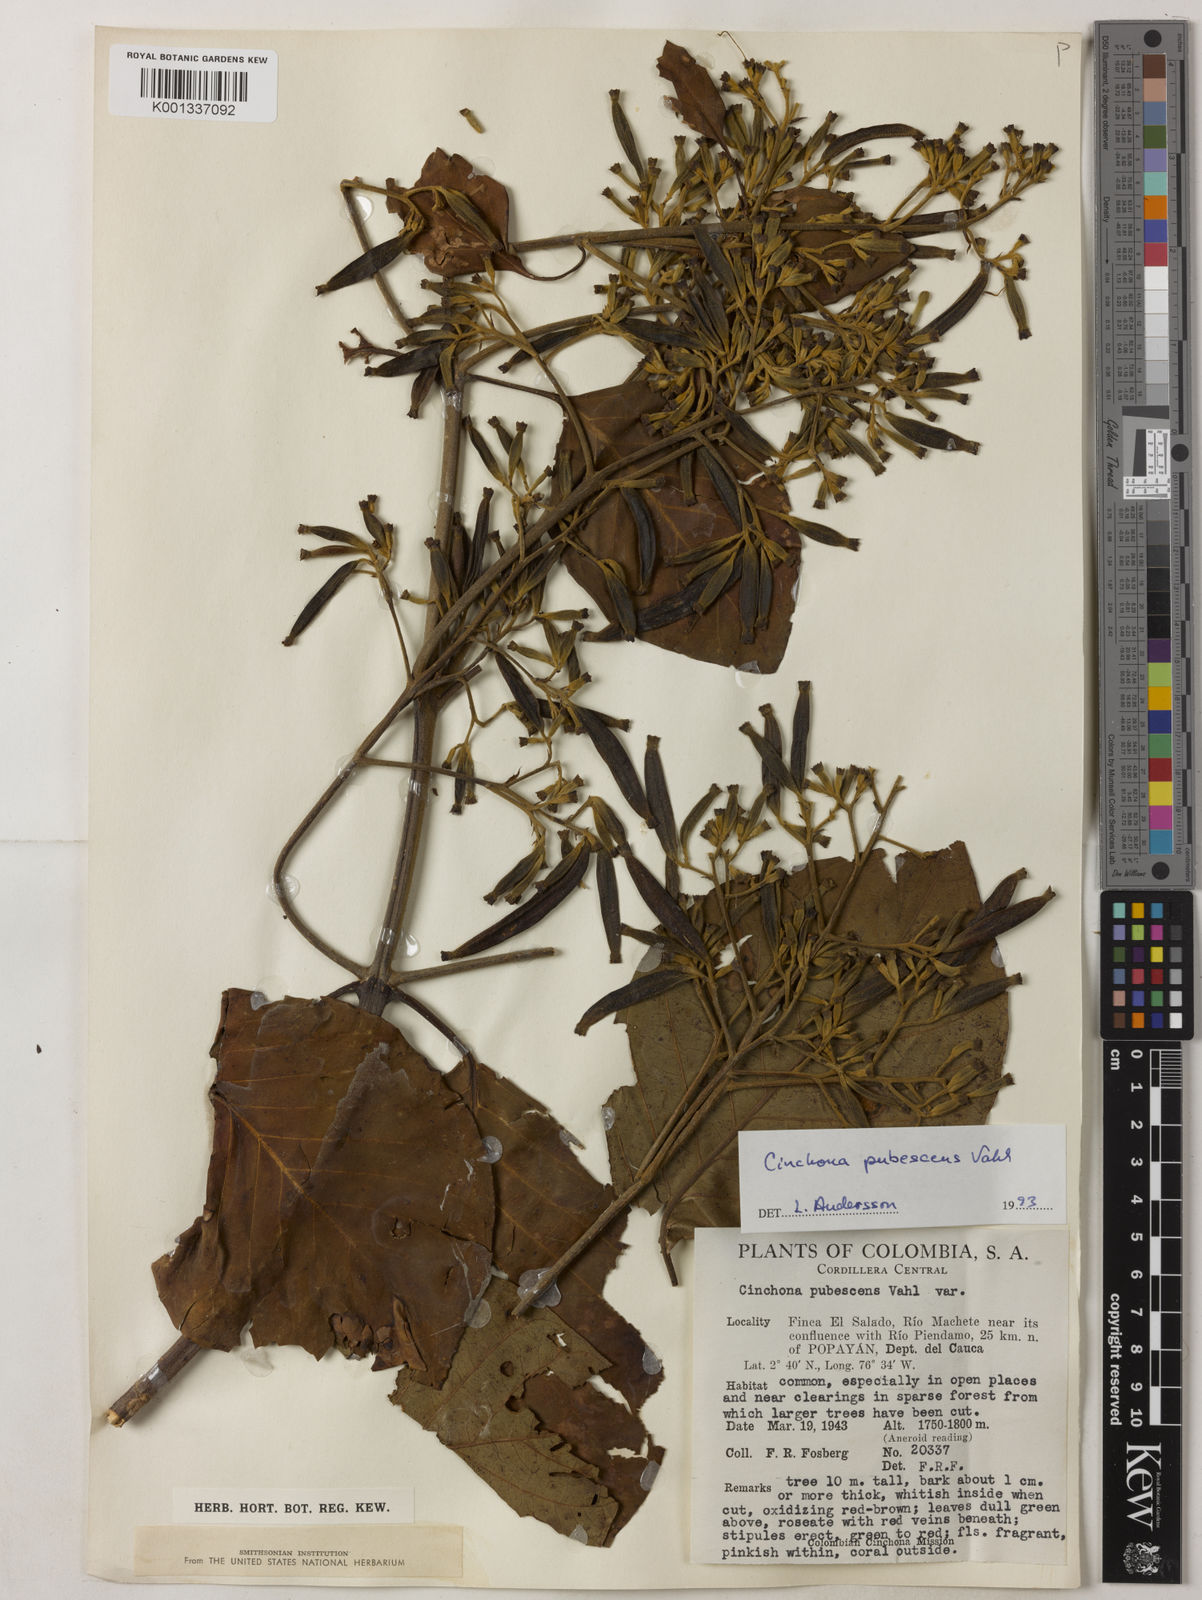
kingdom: Plantae
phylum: Tracheophyta
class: Magnoliopsida
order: Gentianales
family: Rubiaceae
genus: Cinchona
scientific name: Cinchona pubescens
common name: Quinine
